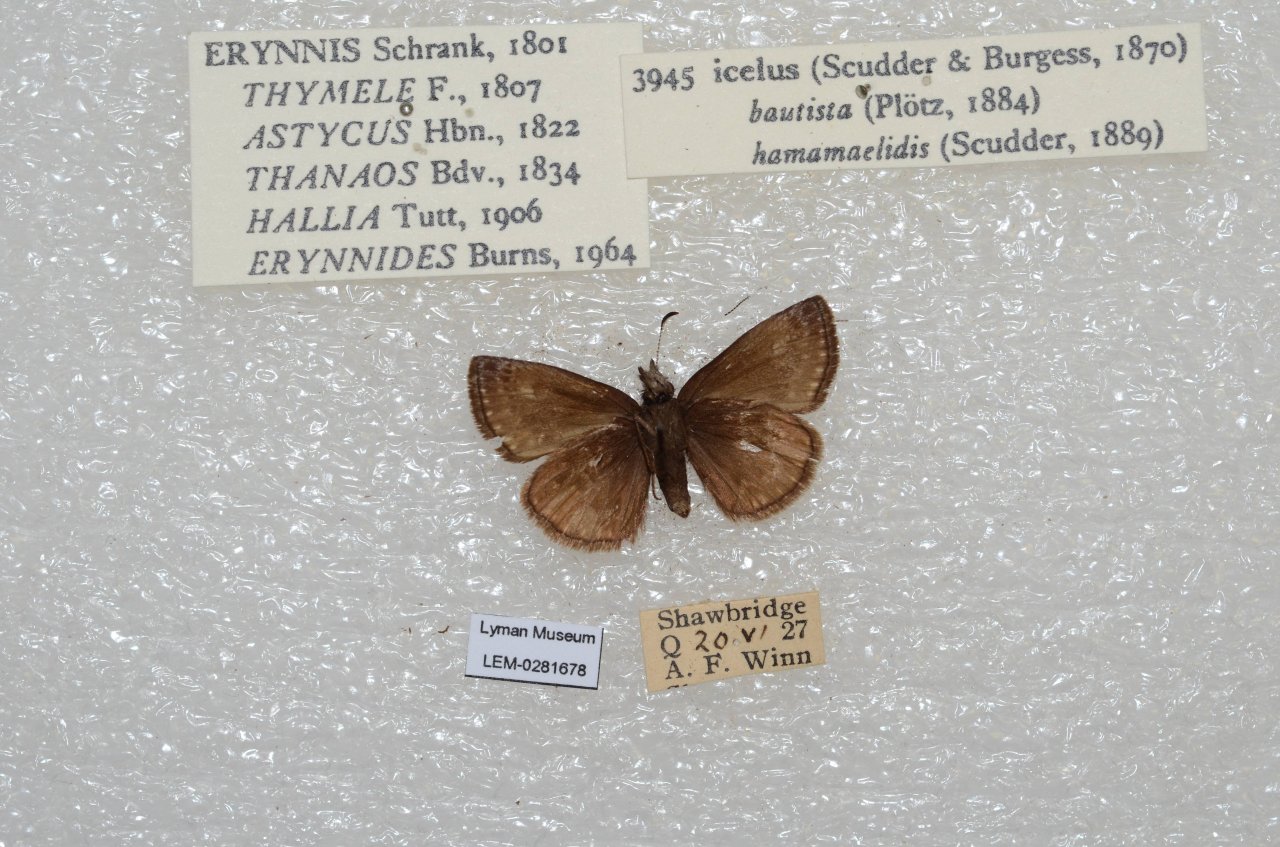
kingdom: Animalia
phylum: Arthropoda
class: Insecta
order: Lepidoptera
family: Hesperiidae
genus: Erynnis
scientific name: Erynnis icelus
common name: Dreamy Duskywing
